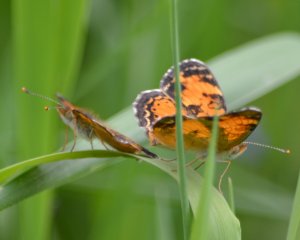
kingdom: Animalia
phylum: Arthropoda
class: Insecta
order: Lepidoptera
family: Nymphalidae
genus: Phyciodes
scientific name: Phyciodes tharos
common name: Northern Crescent
